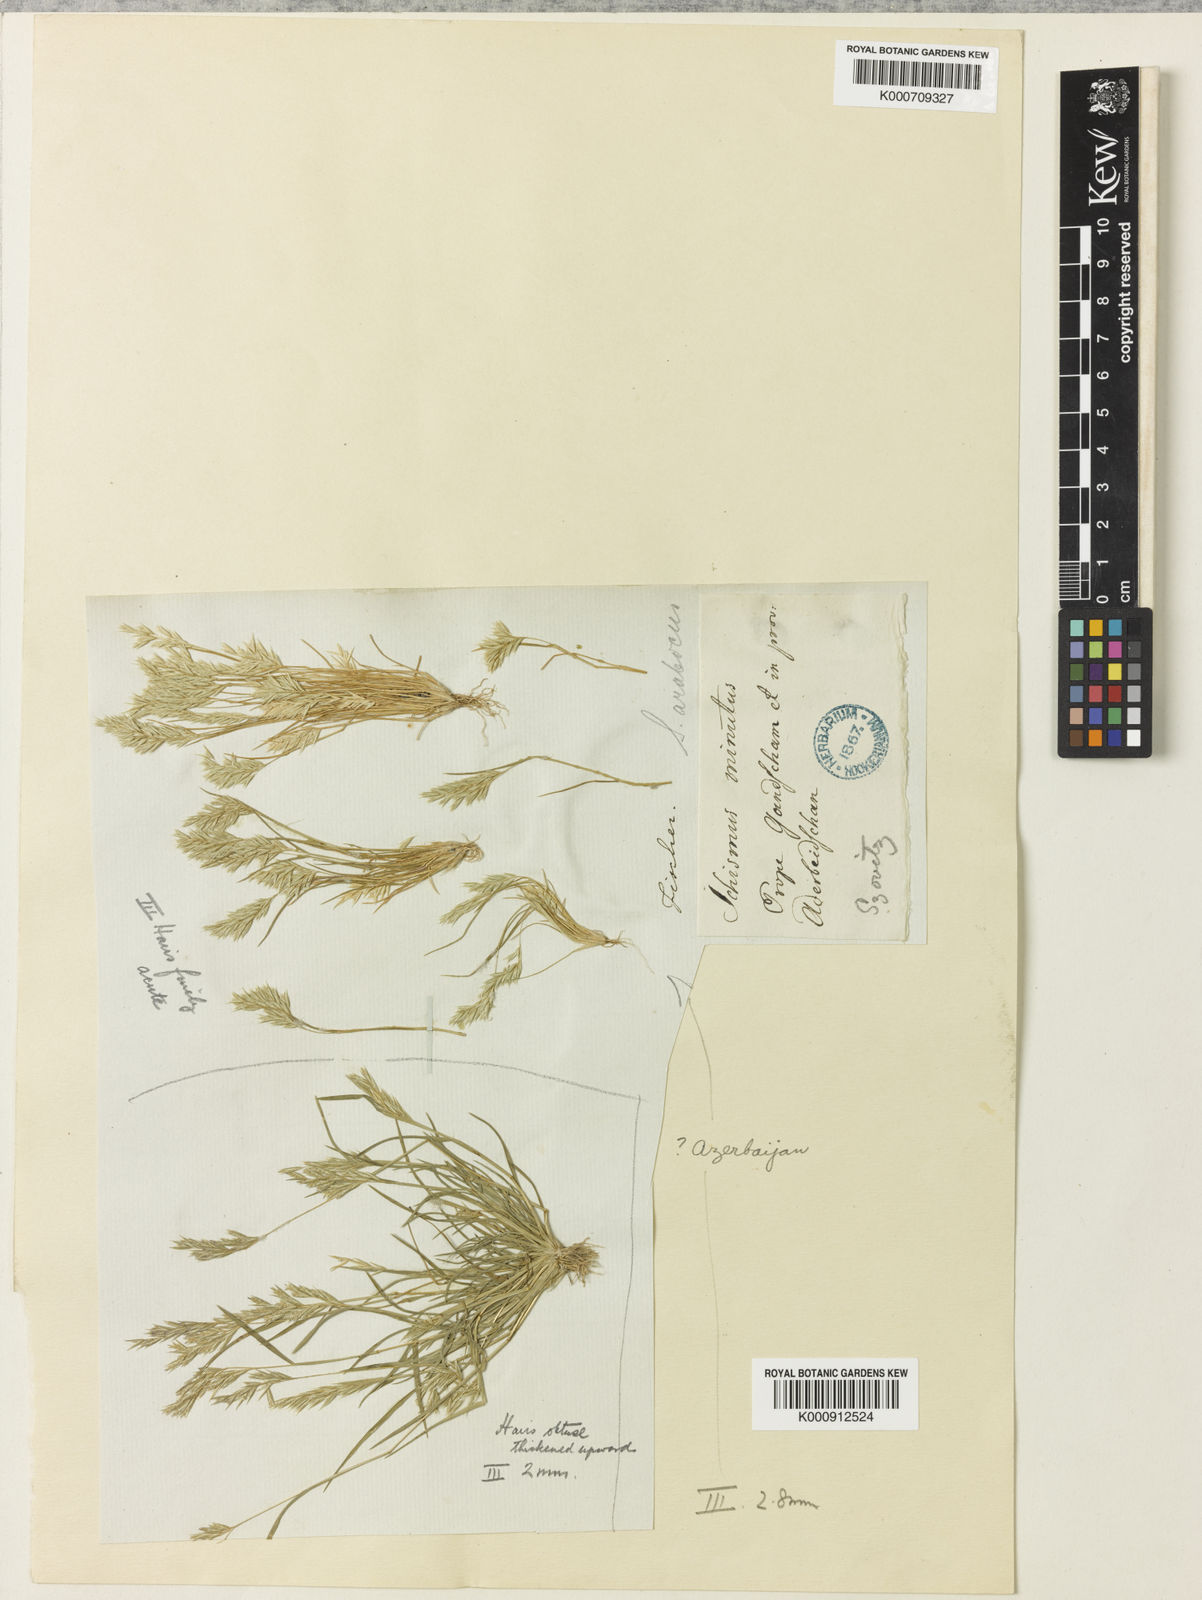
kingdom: Plantae
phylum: Tracheophyta
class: Liliopsida
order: Poales
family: Poaceae
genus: Schismus
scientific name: Schismus arabicus
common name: Arabian schismus
